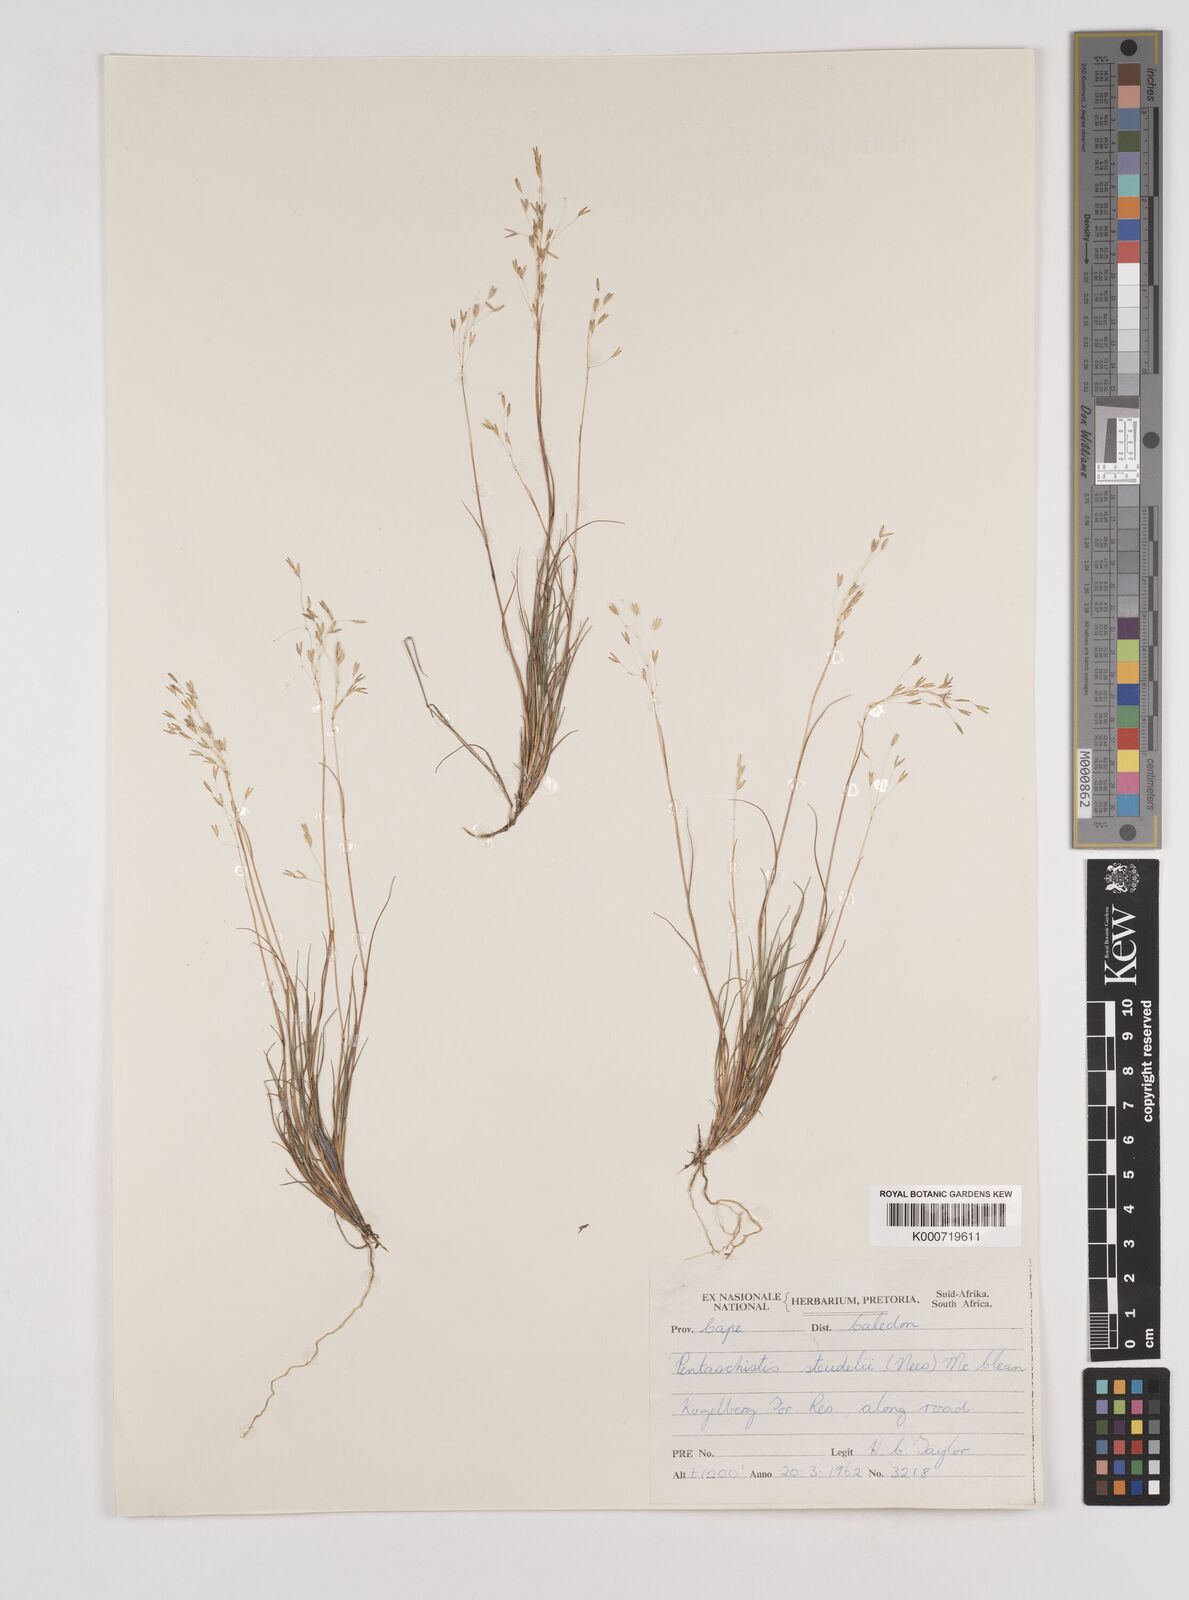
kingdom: Plantae
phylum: Tracheophyta
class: Liliopsida
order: Poales
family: Poaceae
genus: Pentameris
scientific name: Pentameris malouinensis
